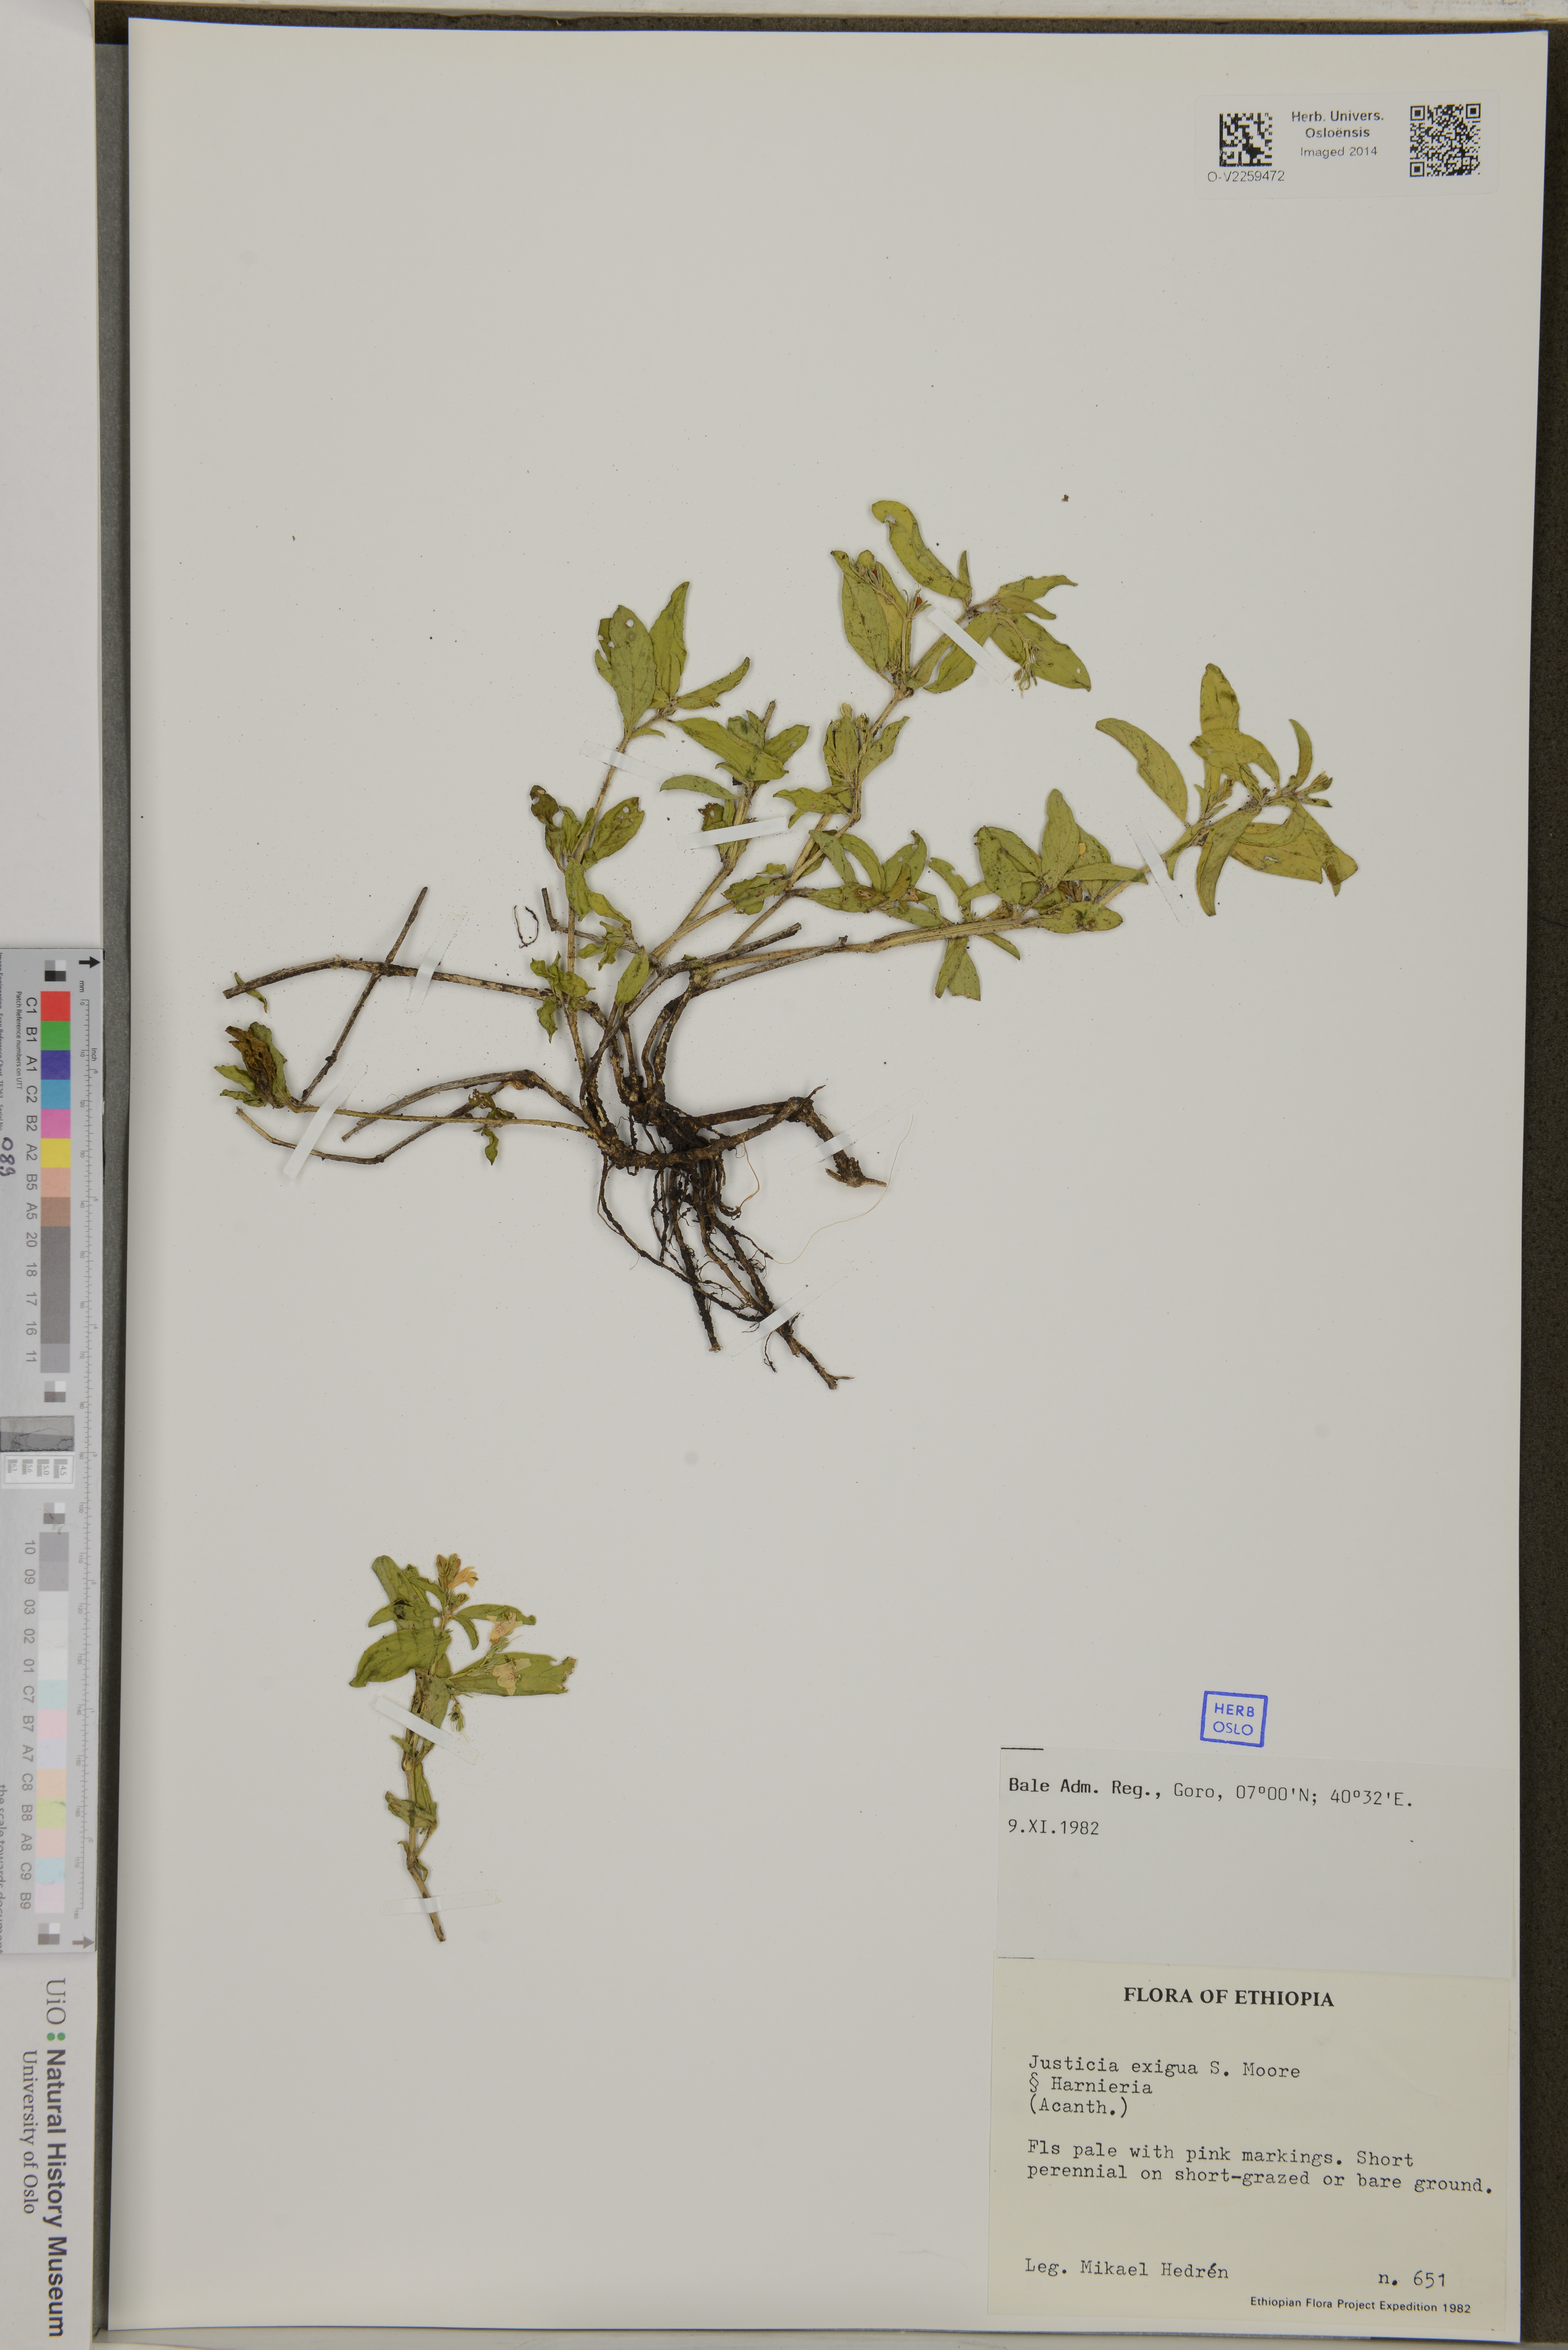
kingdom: Plantae
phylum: Tracheophyta
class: Magnoliopsida
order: Lamiales
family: Acanthaceae
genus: Justicia
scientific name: Justicia exigua
